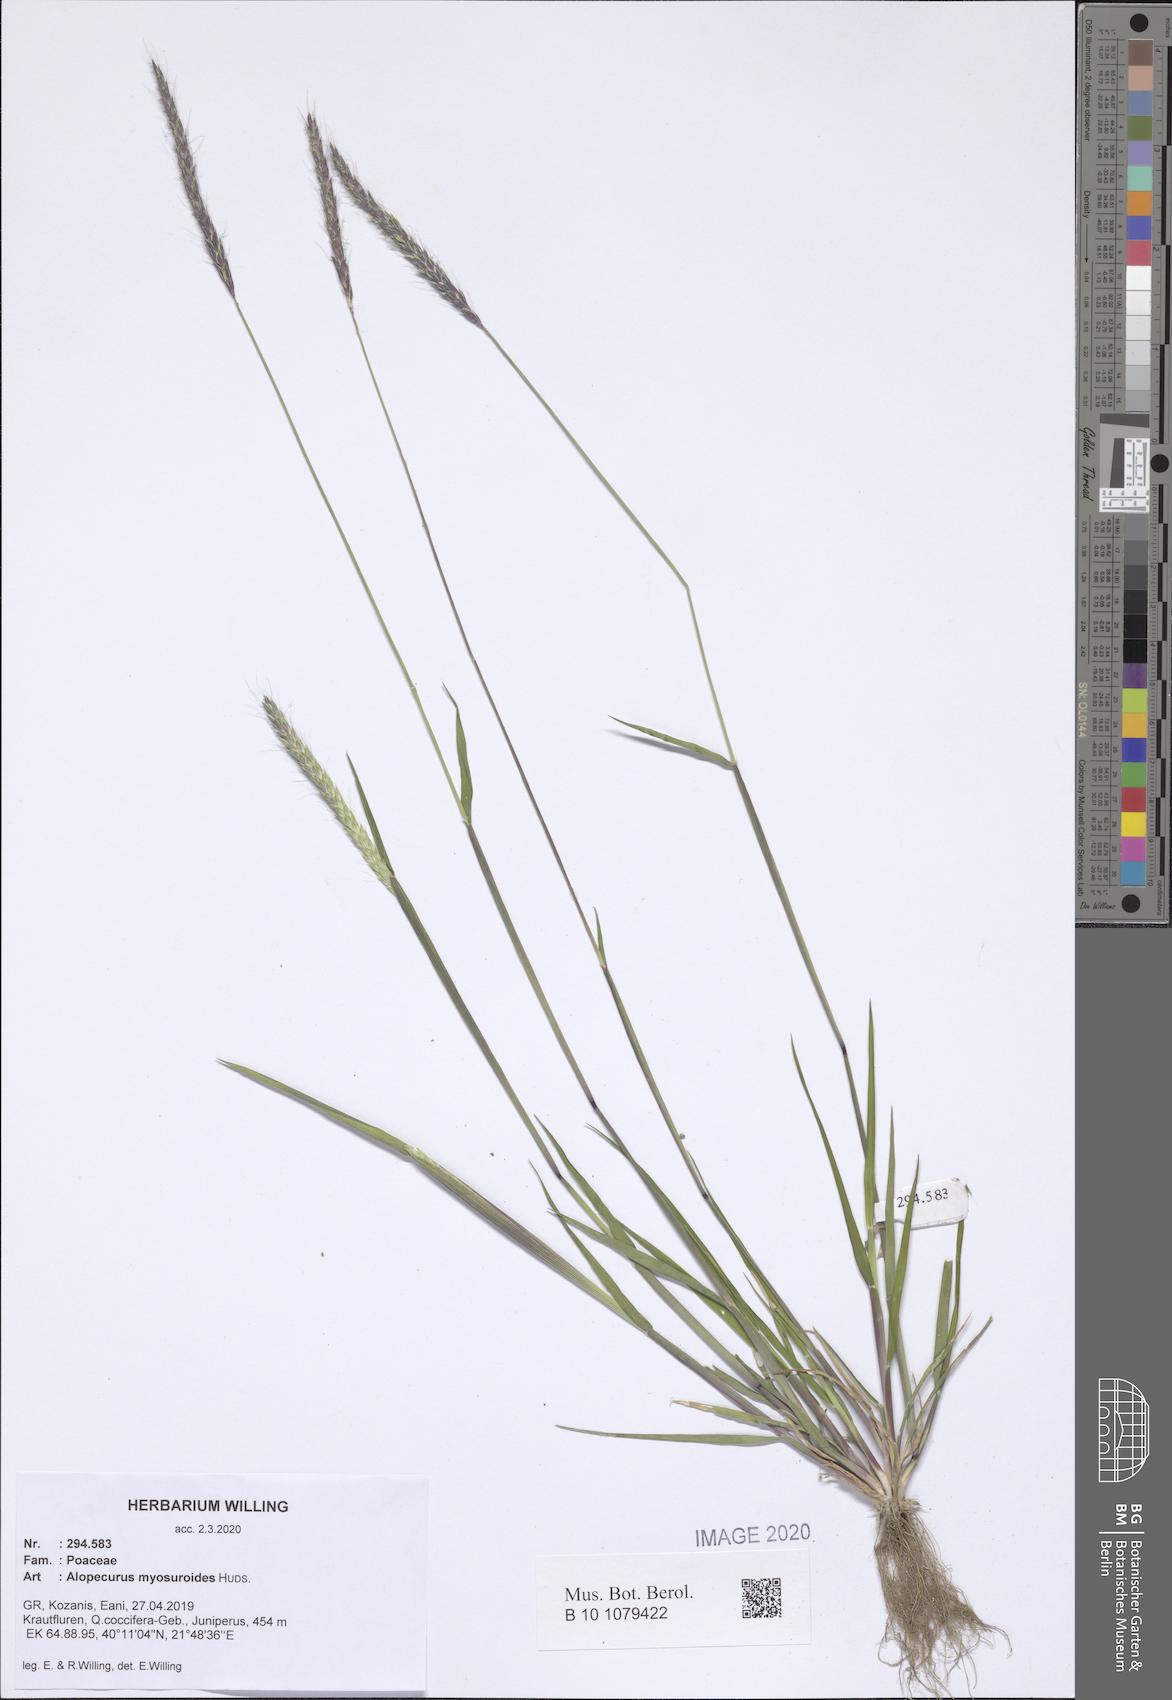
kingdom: Plantae
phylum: Tracheophyta
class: Liliopsida
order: Poales
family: Poaceae
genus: Alopecurus
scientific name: Alopecurus myosuroides
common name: Black-grass
